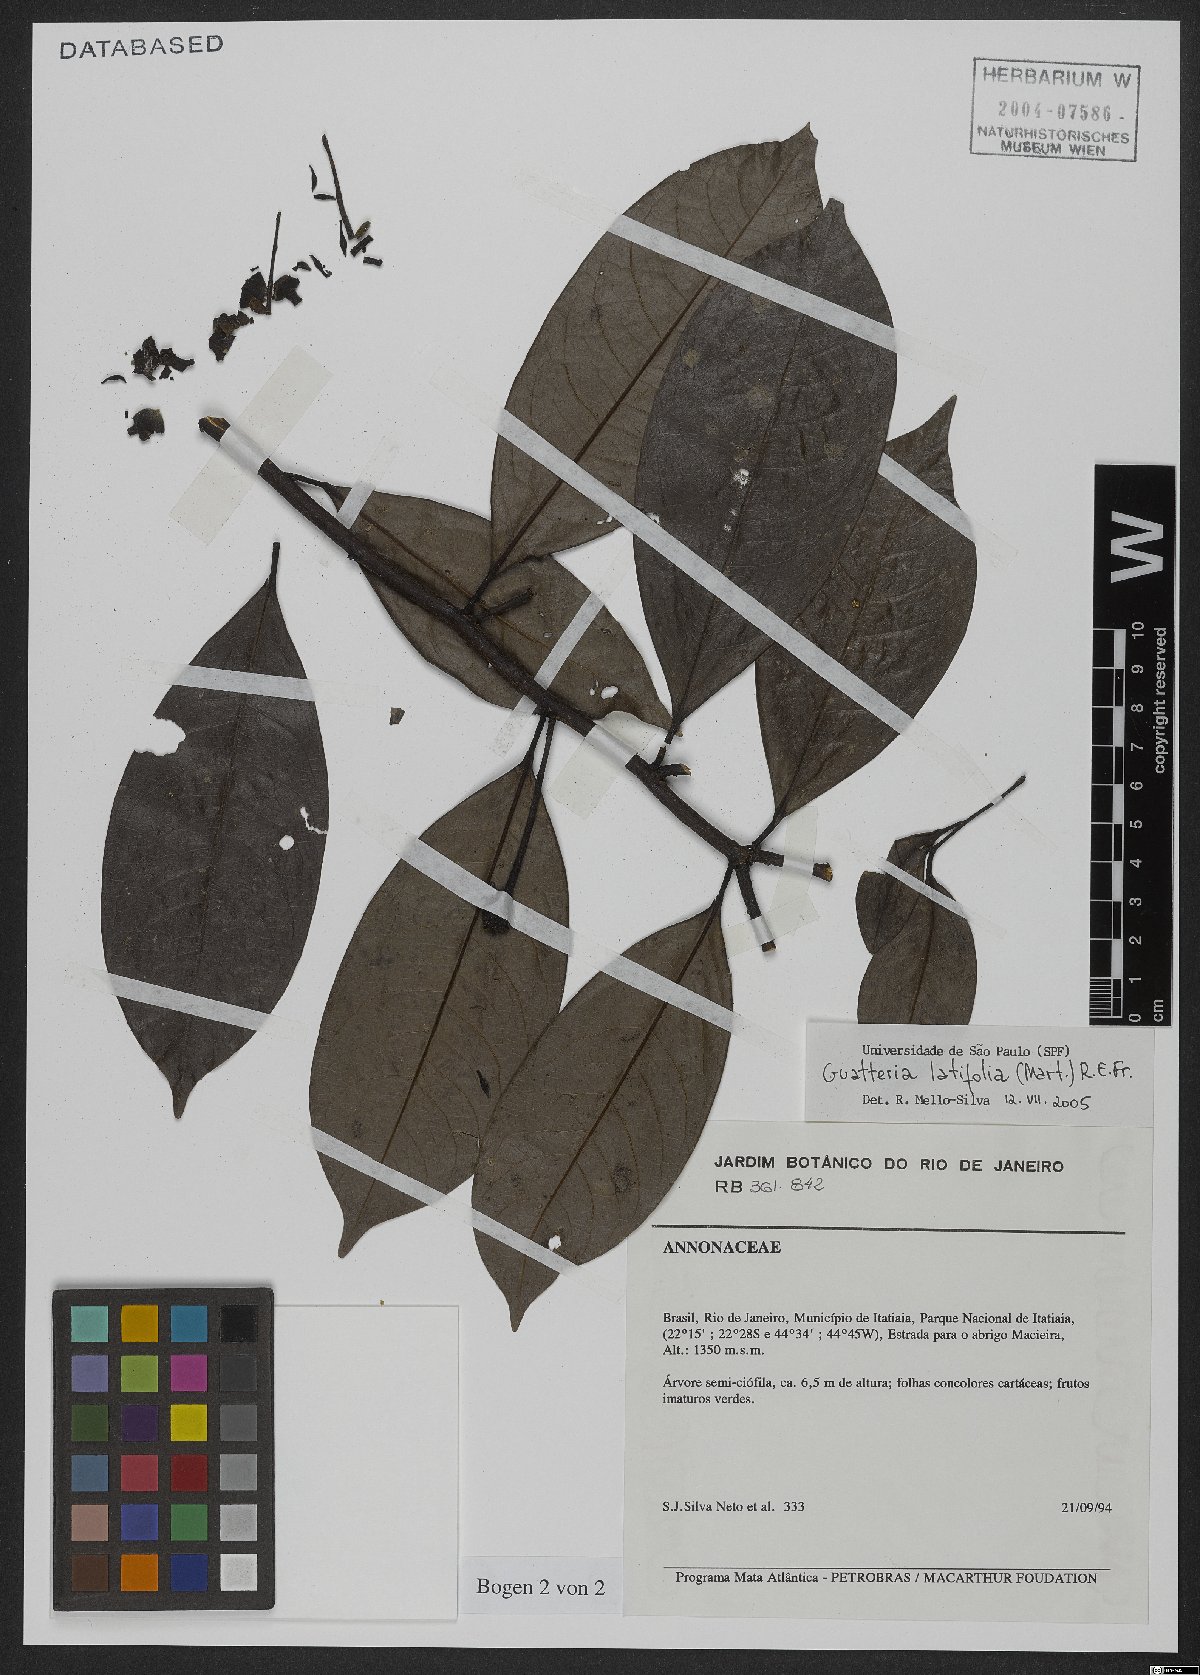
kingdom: Plantae
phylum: Tracheophyta
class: Magnoliopsida
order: Magnoliales
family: Annonaceae
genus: Guatteria
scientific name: Guatteria latifolia
